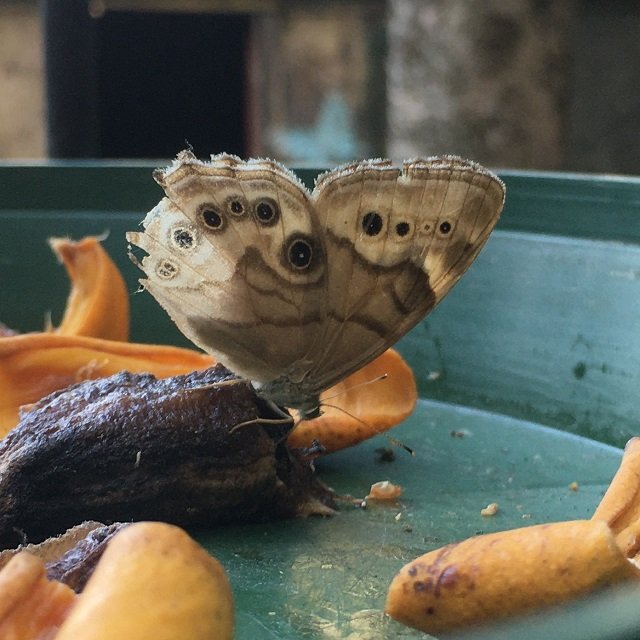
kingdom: Animalia
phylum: Arthropoda
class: Insecta
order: Lepidoptera
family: Nymphalidae
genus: Lethe
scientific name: Lethe anthedon
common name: Northern Pearly-Eye
